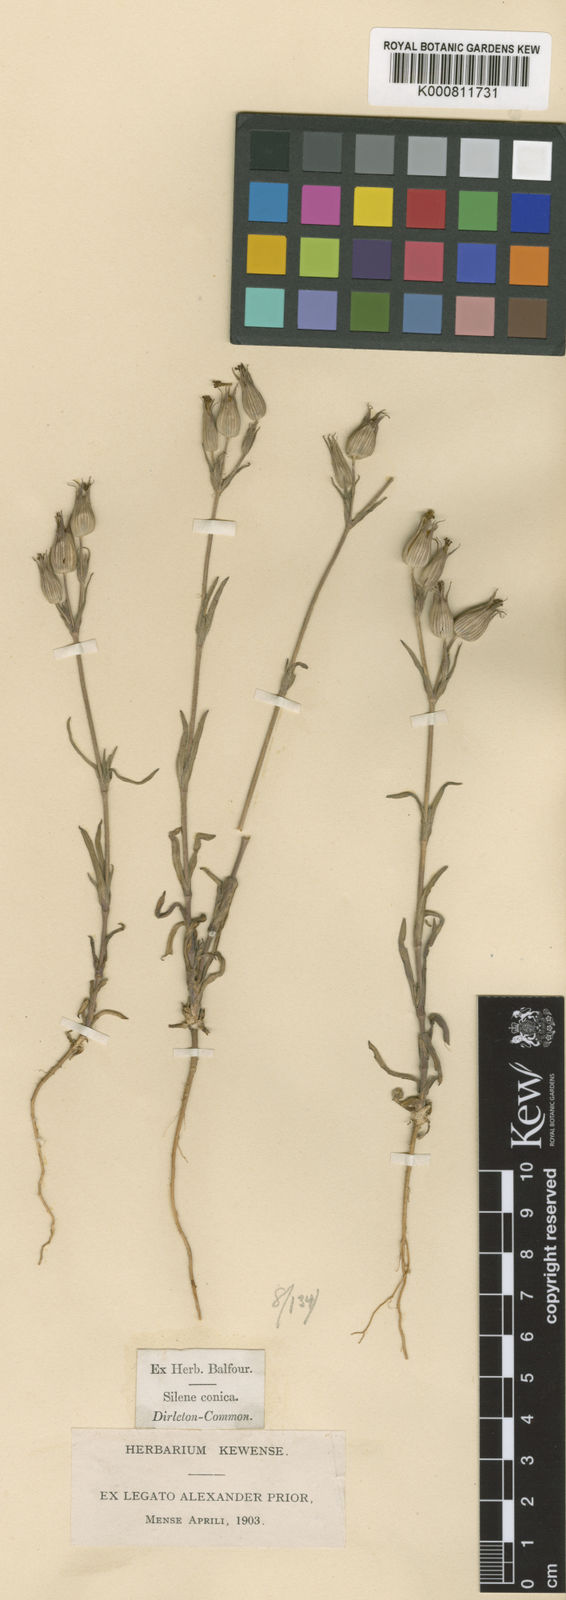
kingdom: Plantae
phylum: Tracheophyta
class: Magnoliopsida
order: Caryophyllales
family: Caryophyllaceae
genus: Silene
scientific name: Silene conica
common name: Sand catchfly
